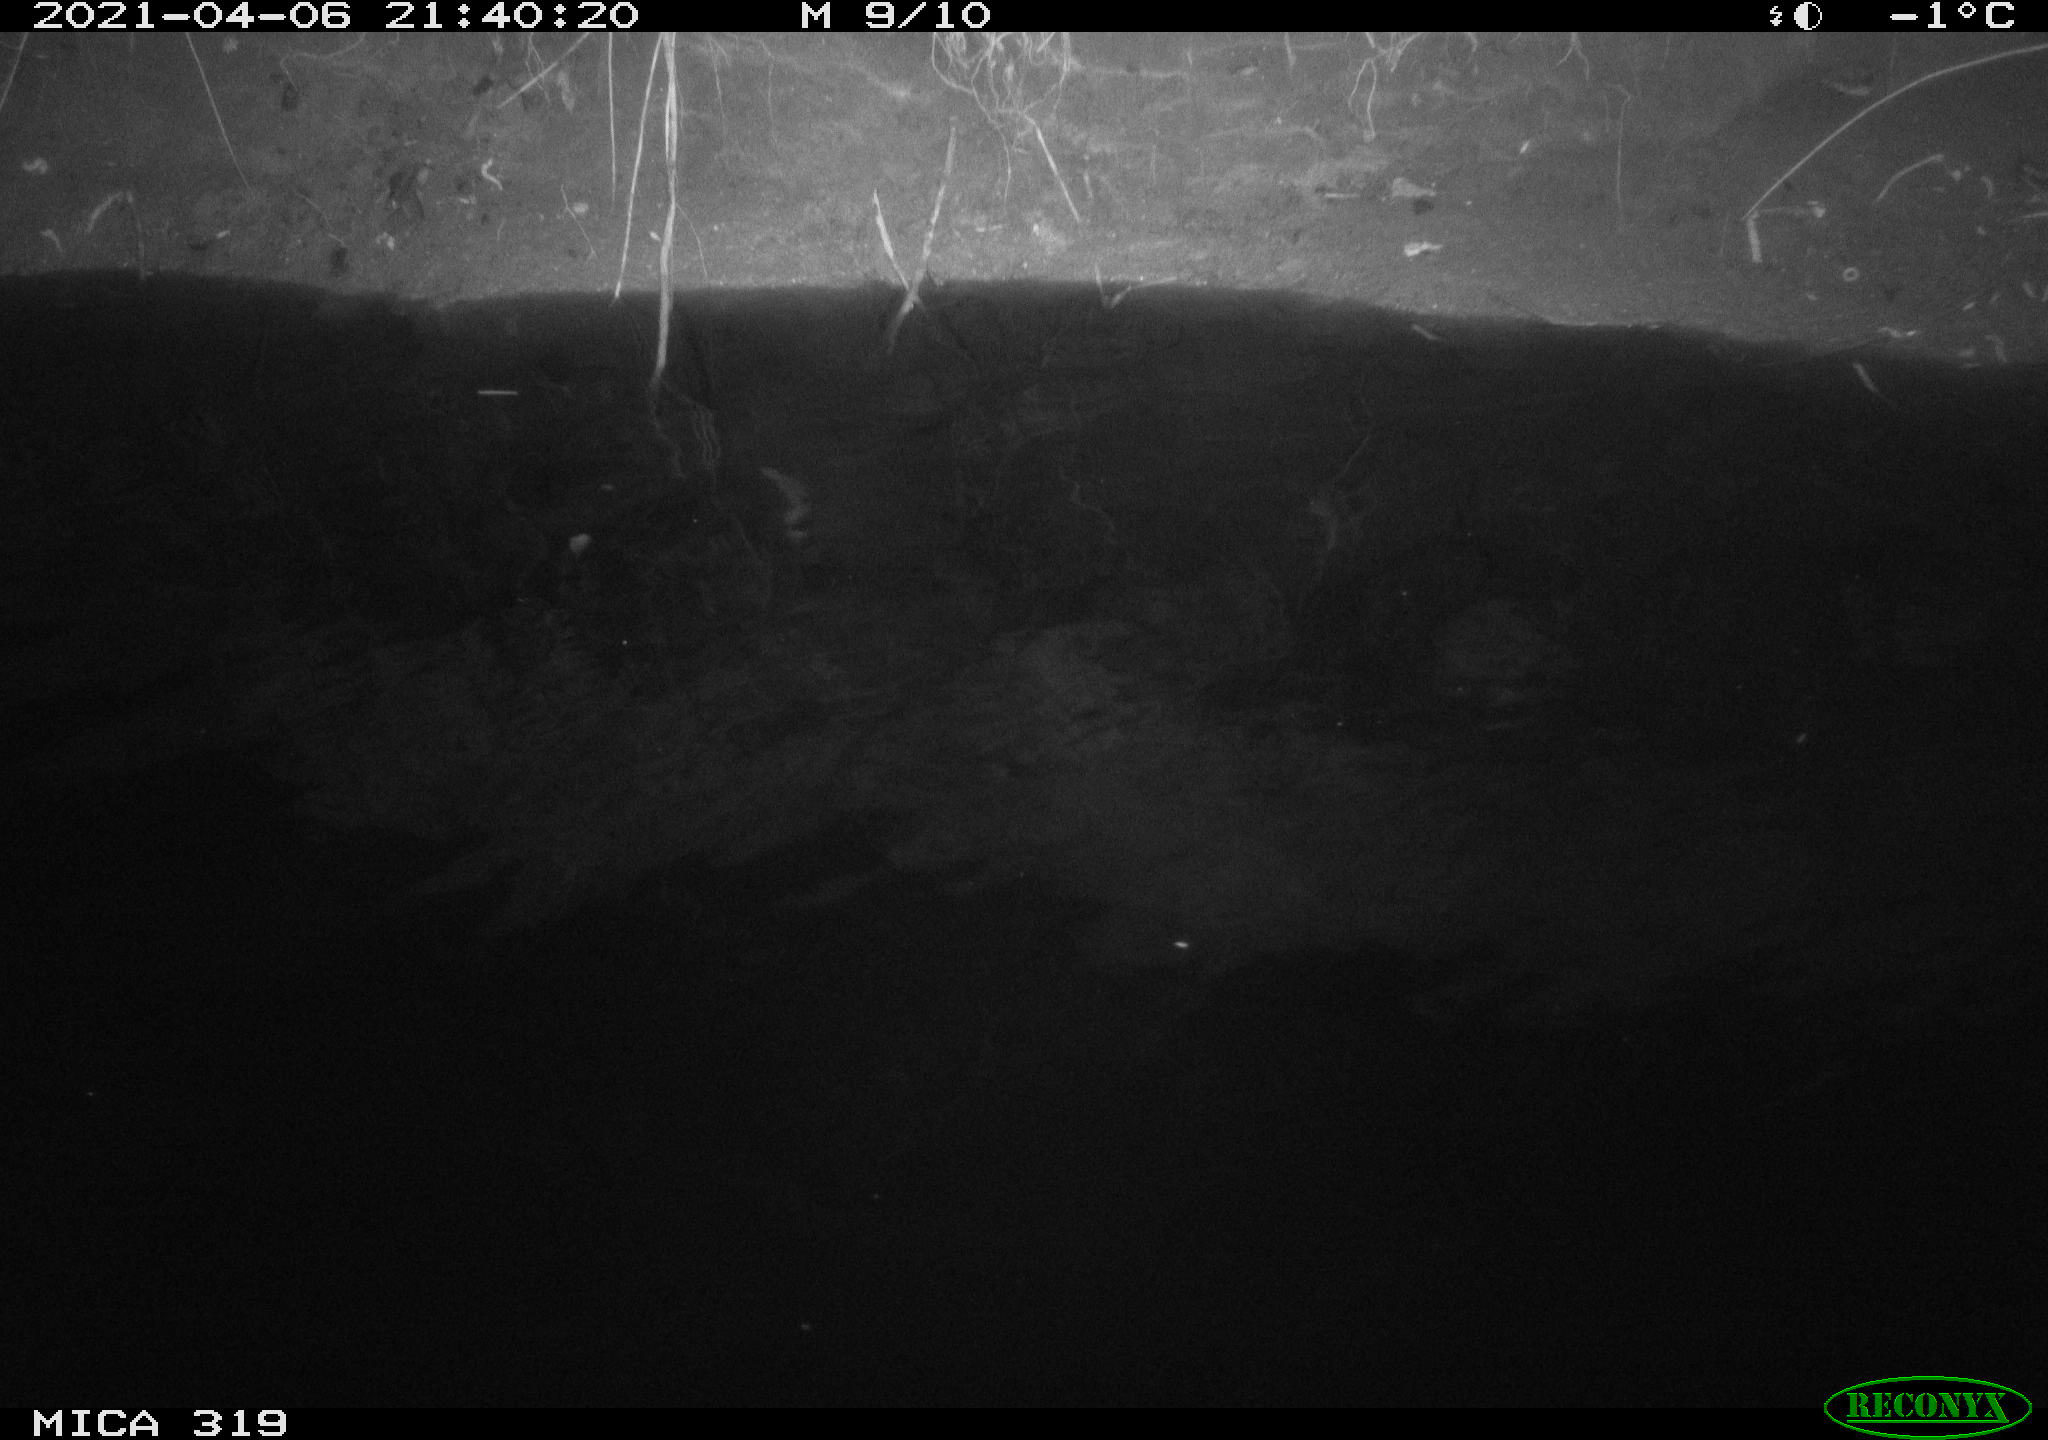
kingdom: Animalia
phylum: Chordata
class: Aves
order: Anseriformes
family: Anatidae
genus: Anas
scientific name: Anas platyrhynchos
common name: Mallard
